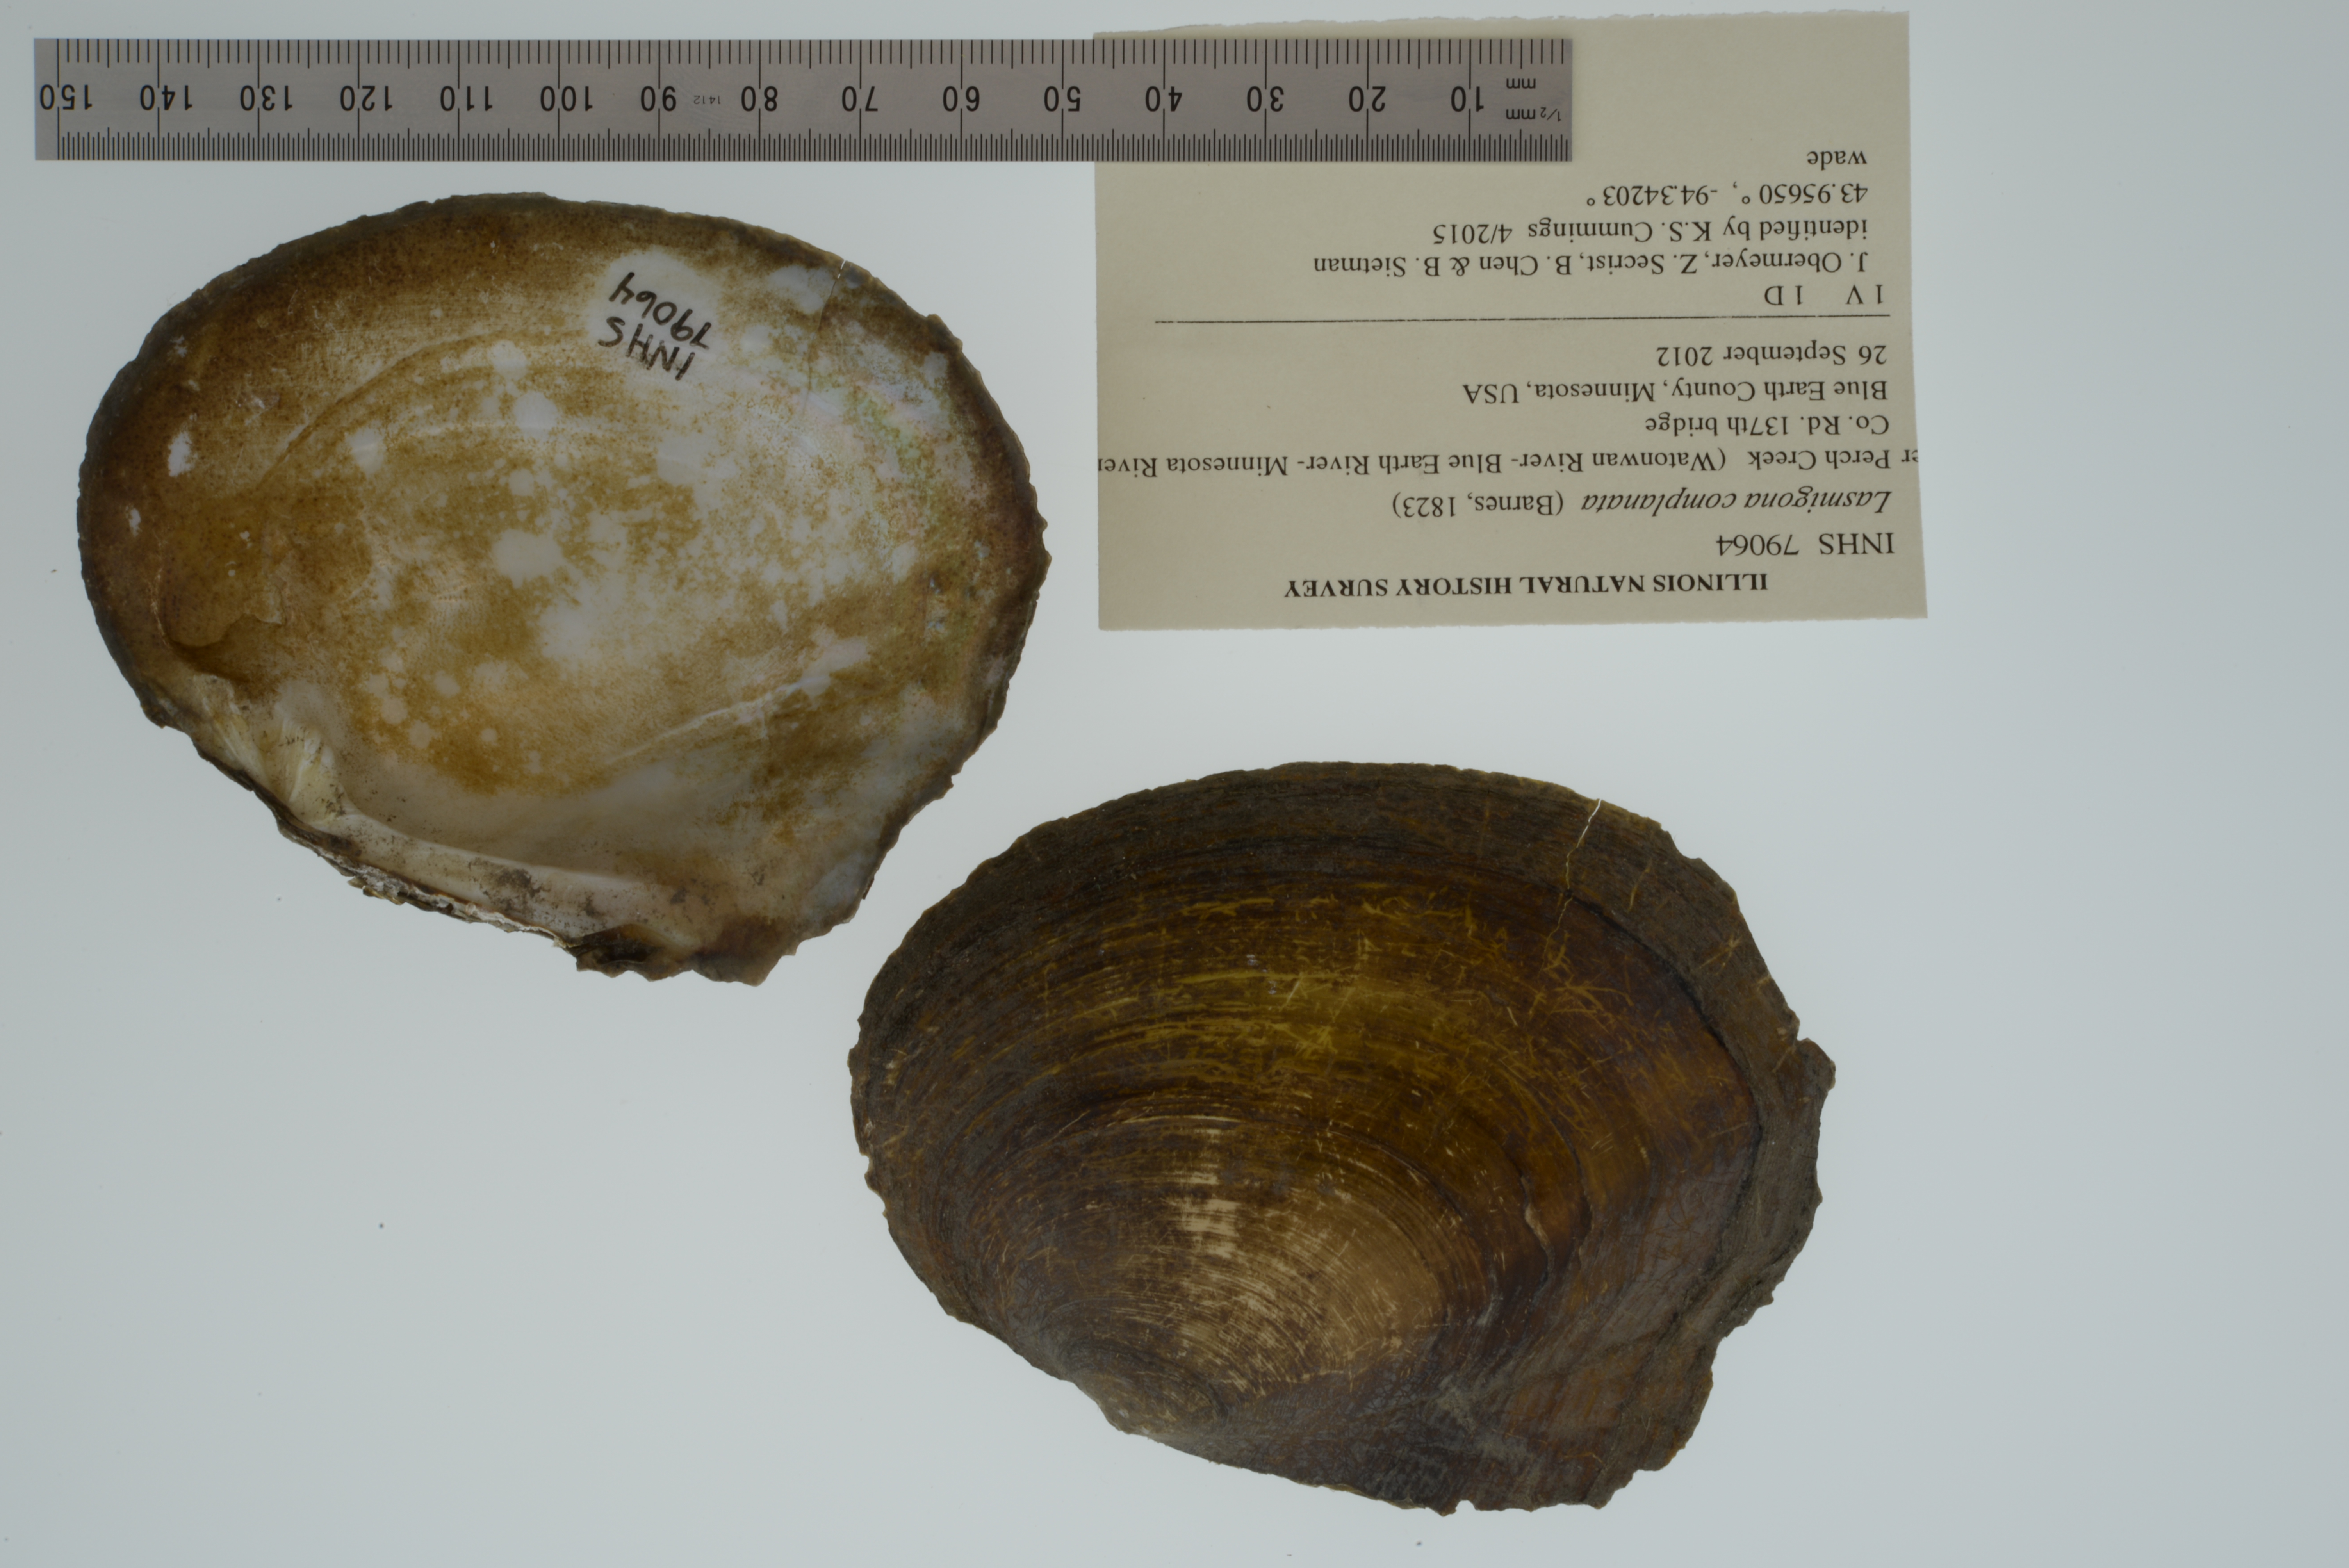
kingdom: Animalia
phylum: Mollusca
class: Bivalvia
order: Unionida
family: Unionidae
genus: Lasmigona
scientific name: Lasmigona complanata
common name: White heelsplitter
